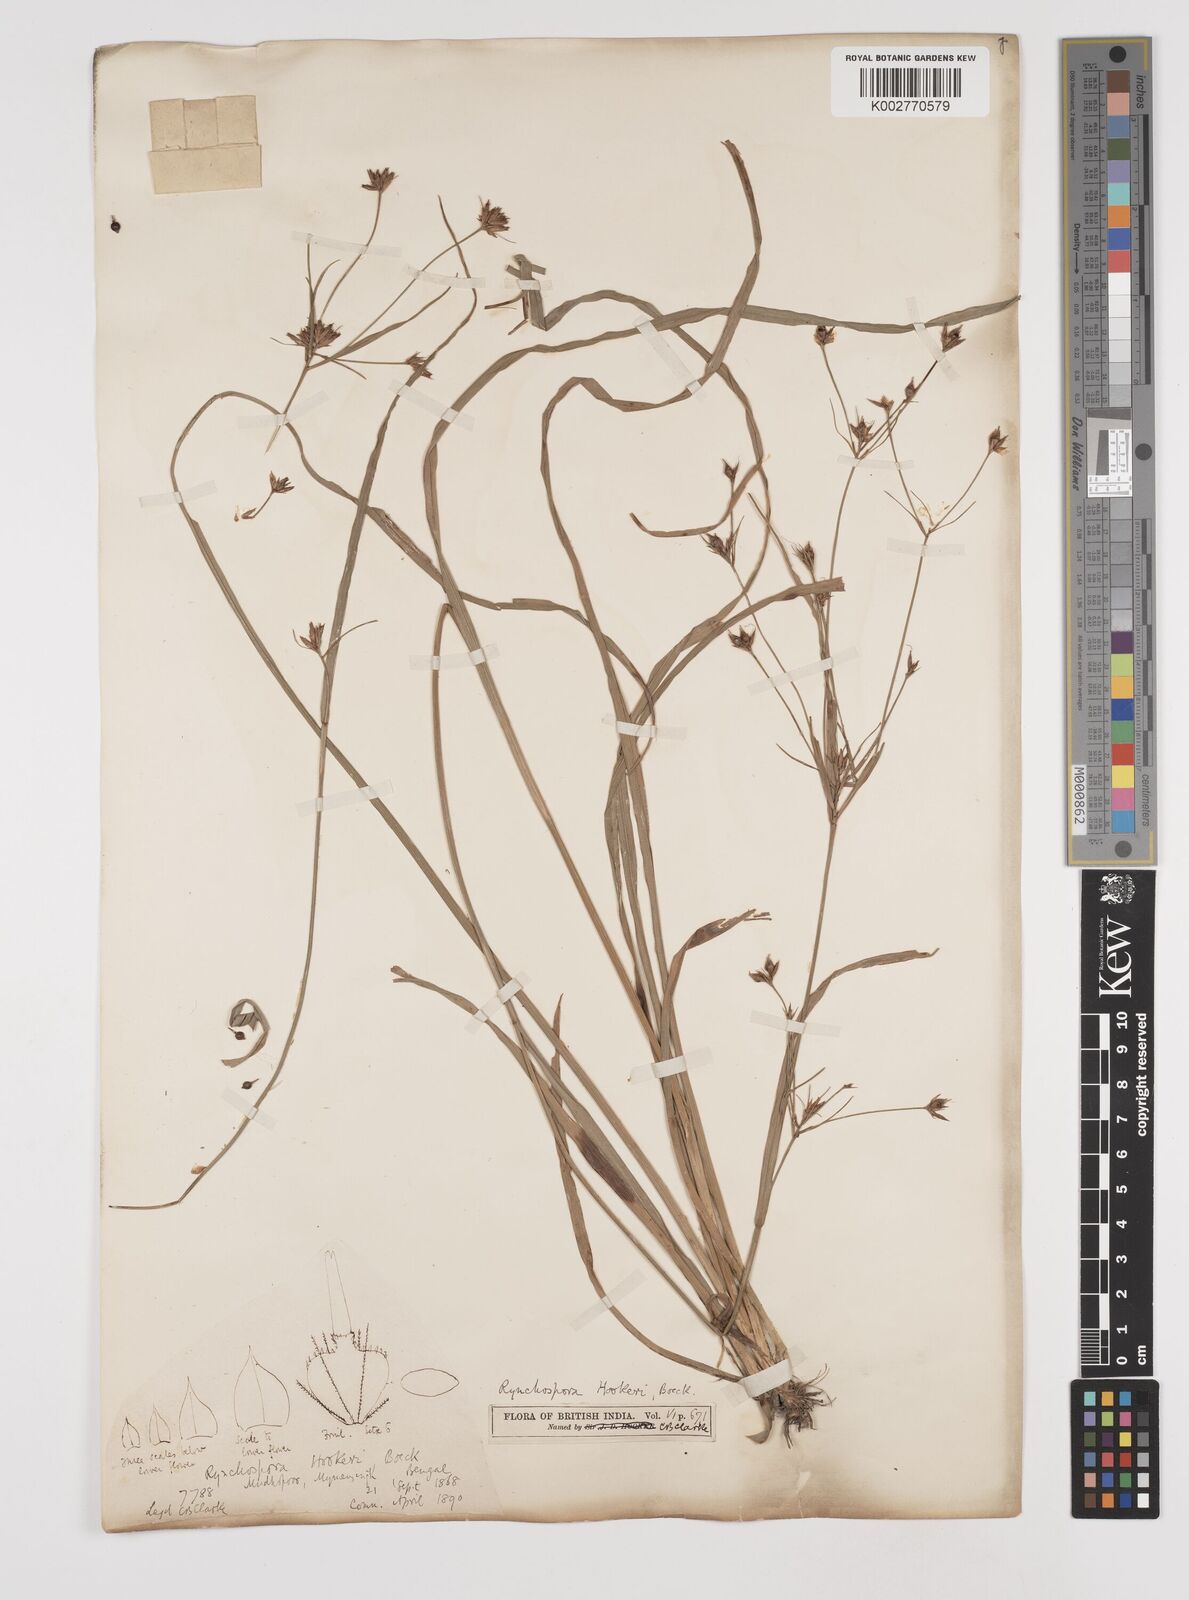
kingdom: Plantae
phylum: Tracheophyta
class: Liliopsida
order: Poales
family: Cyperaceae
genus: Rhynchospora
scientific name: Rhynchospora hookeri
